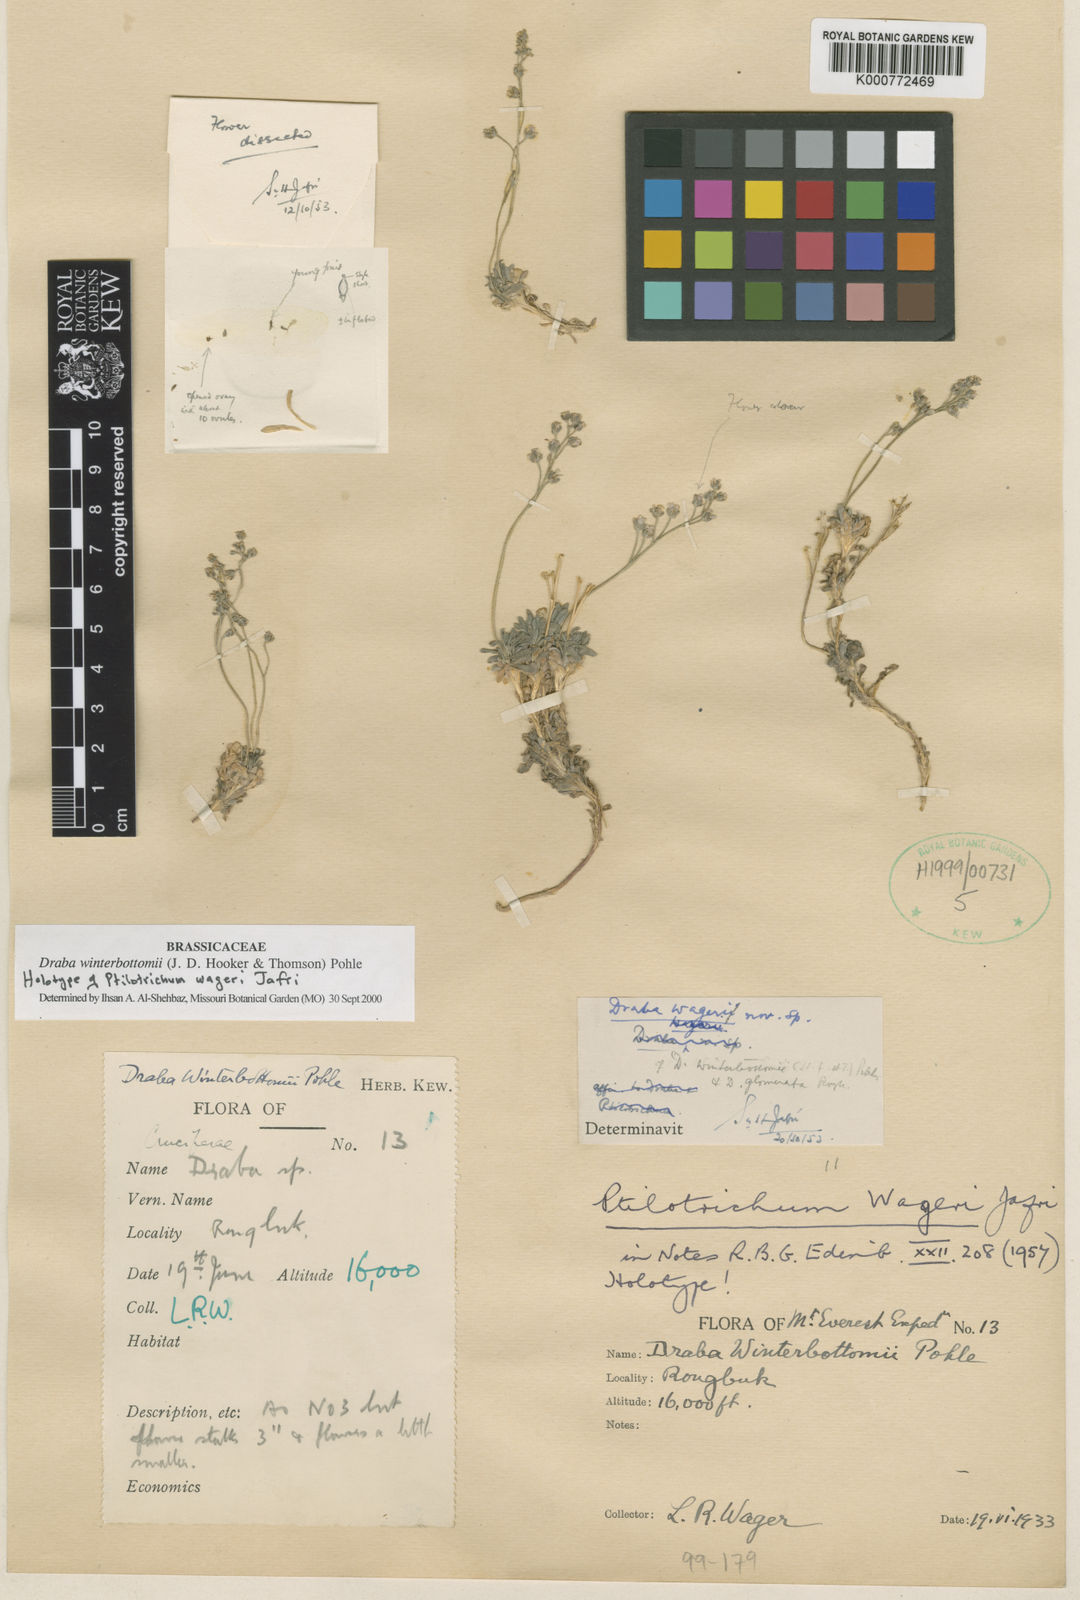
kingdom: Plantae
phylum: Tracheophyta
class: Magnoliopsida
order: Brassicales
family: Brassicaceae
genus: Draba
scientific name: Draba winterbottomii
